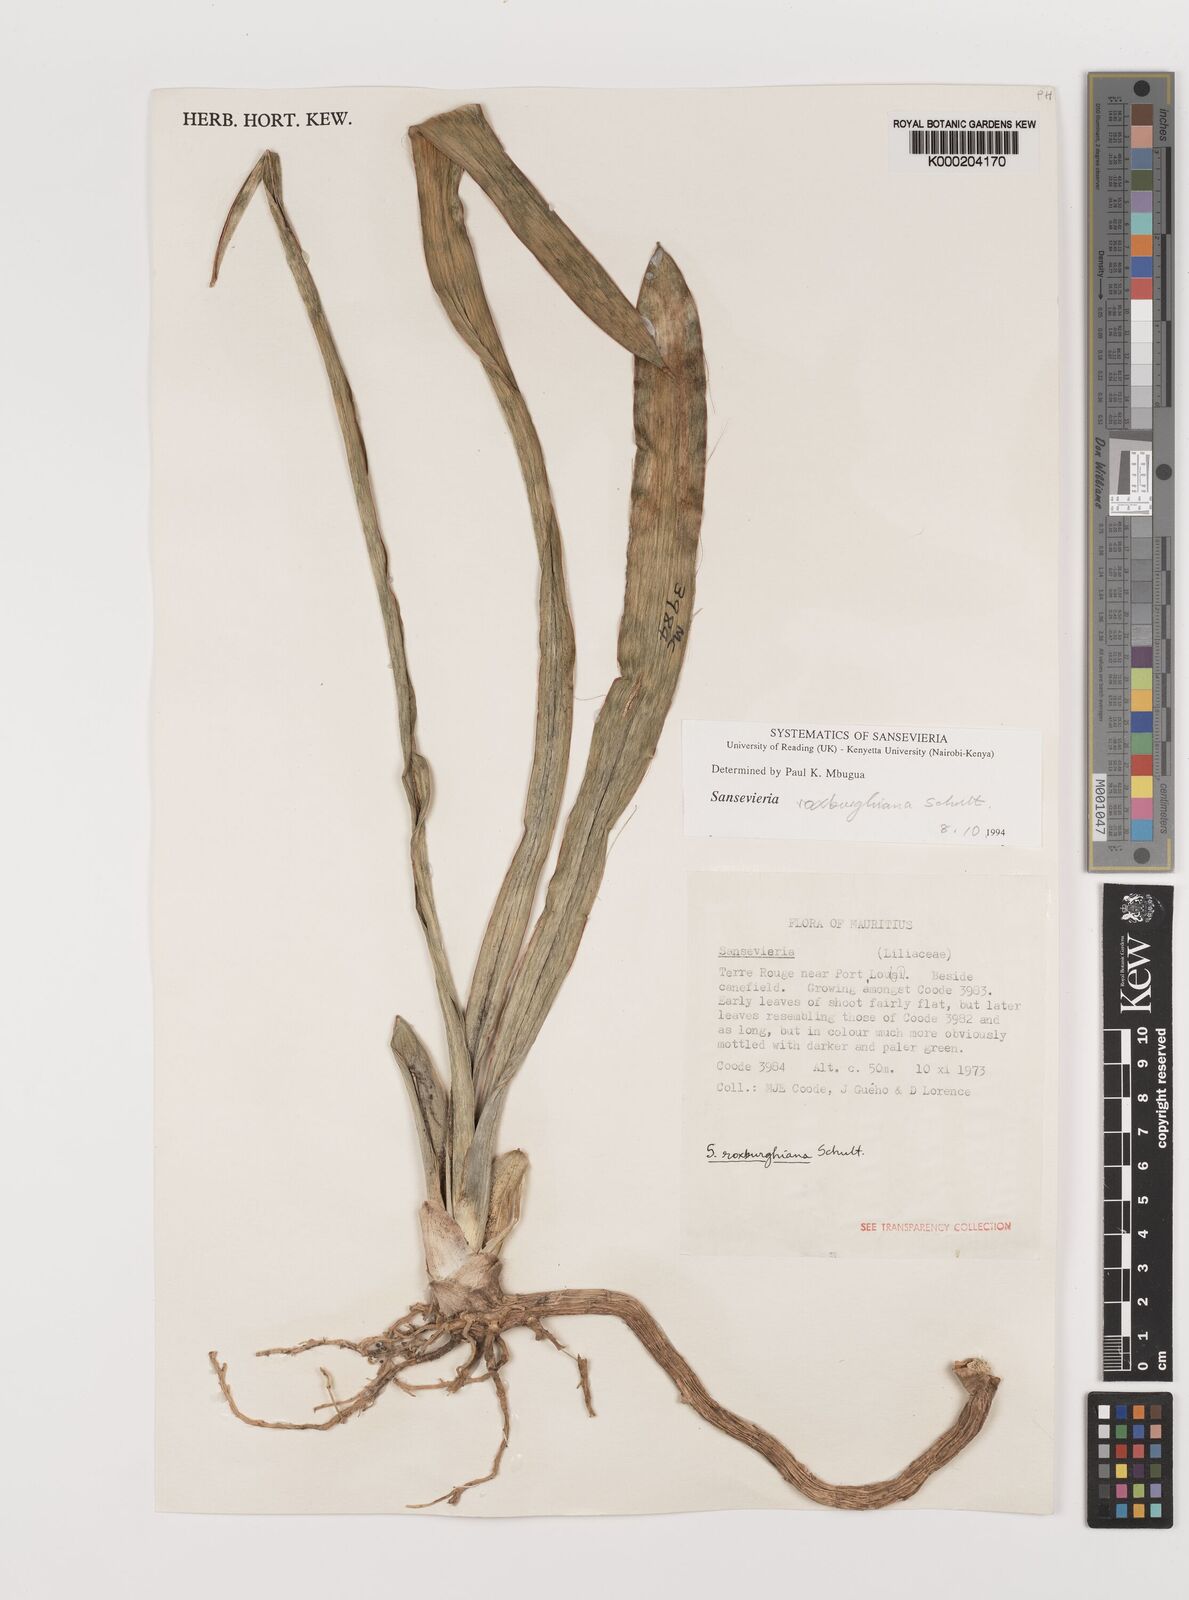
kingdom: Plantae
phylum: Tracheophyta
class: Liliopsida
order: Asparagales
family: Asparagaceae
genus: Dracaena
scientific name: Dracaena roxburghiana
